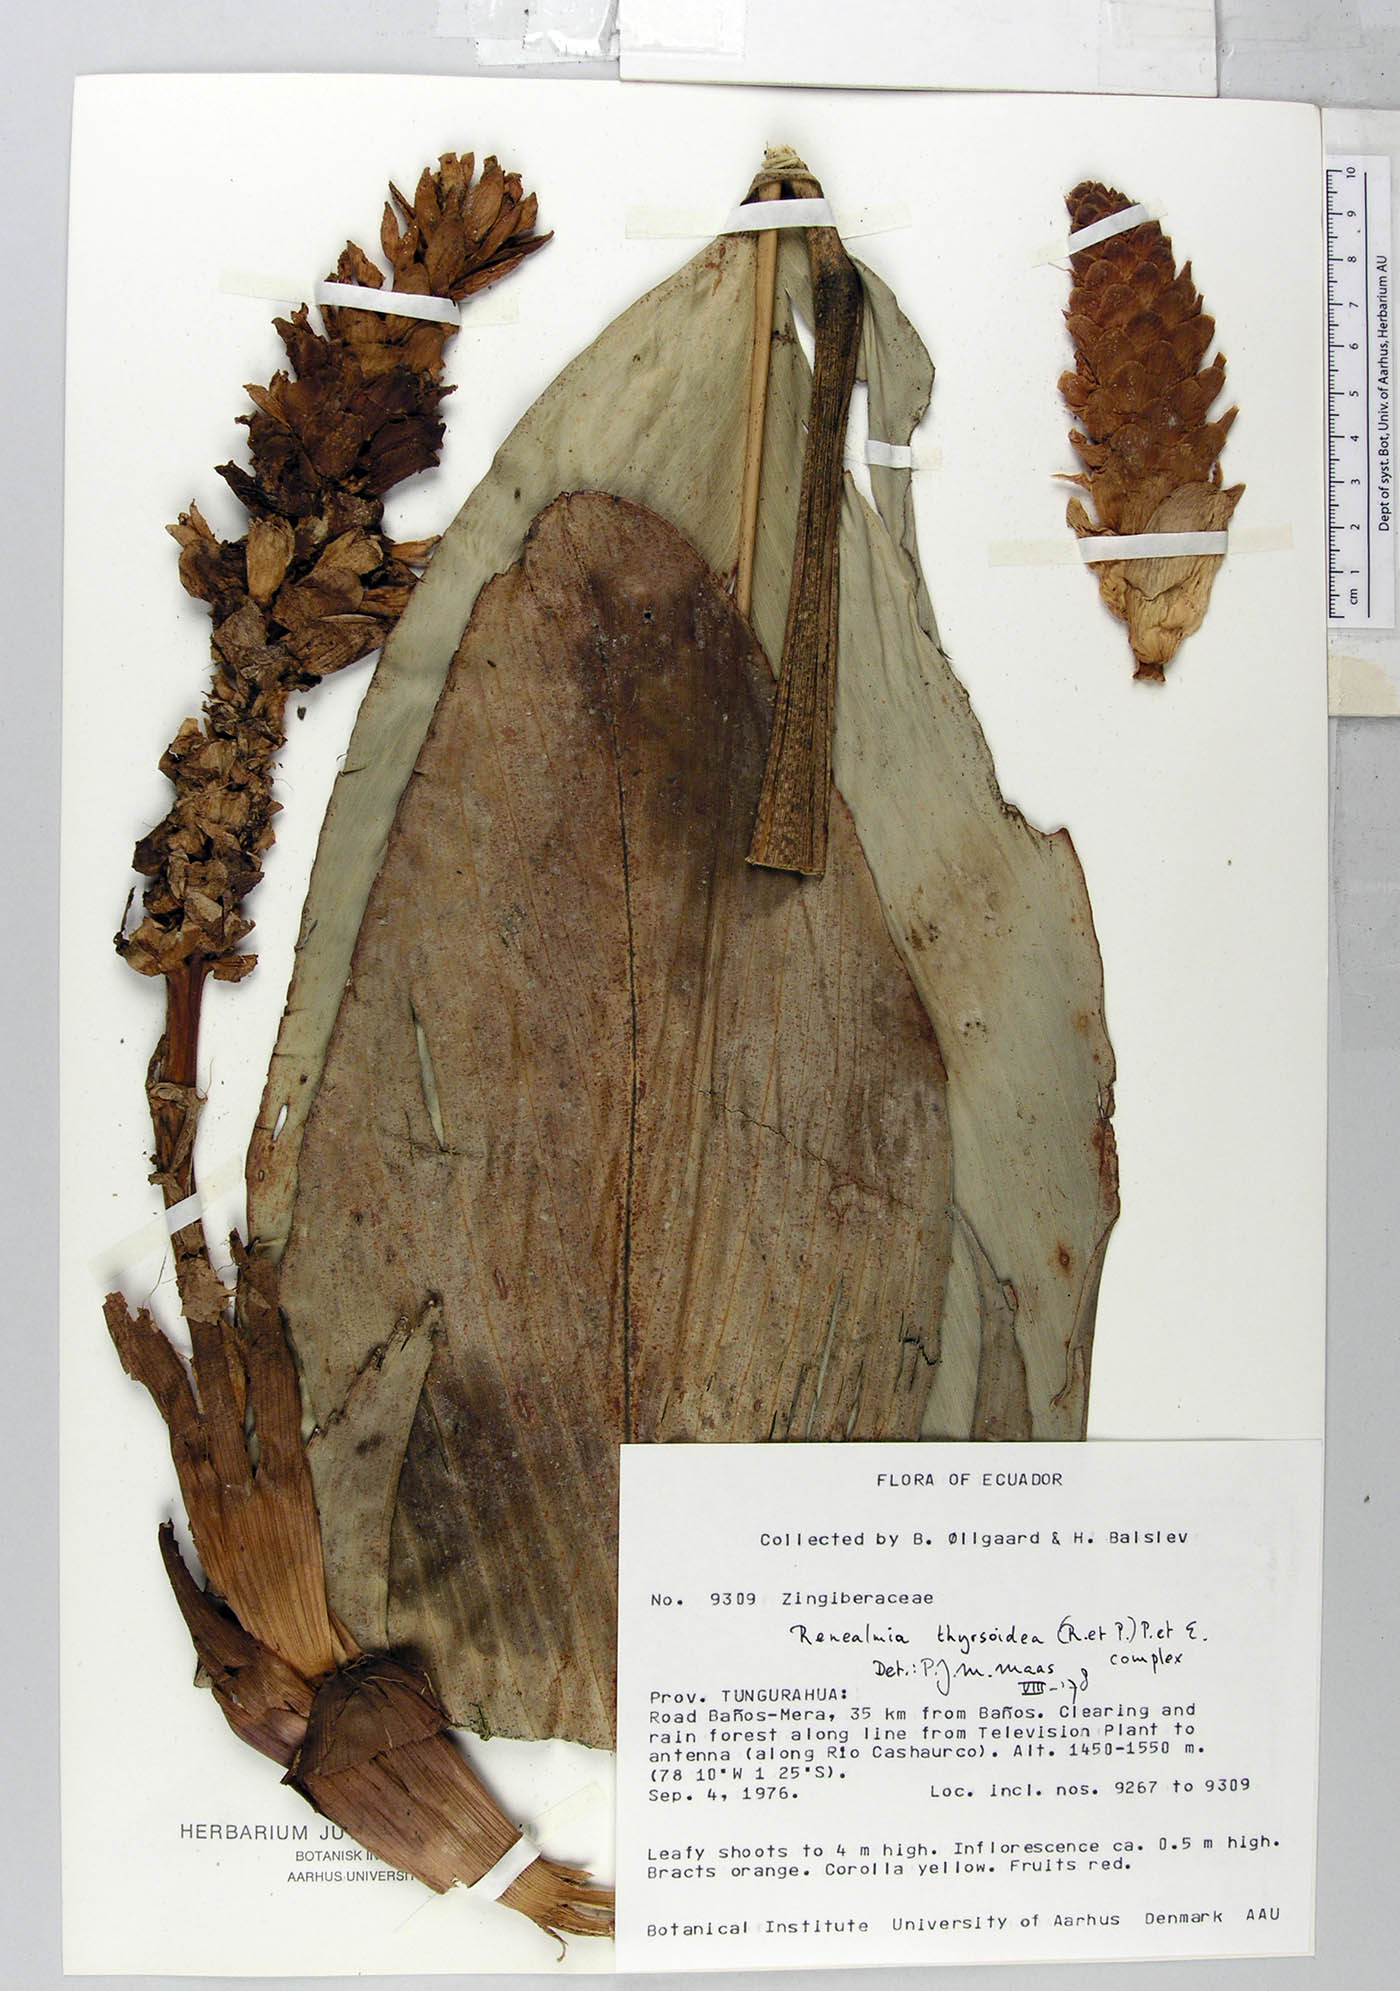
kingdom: Plantae
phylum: Tracheophyta
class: Liliopsida
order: Zingiberales
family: Zingiberaceae
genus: Renealmia
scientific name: Renealmia thyrsoidea
